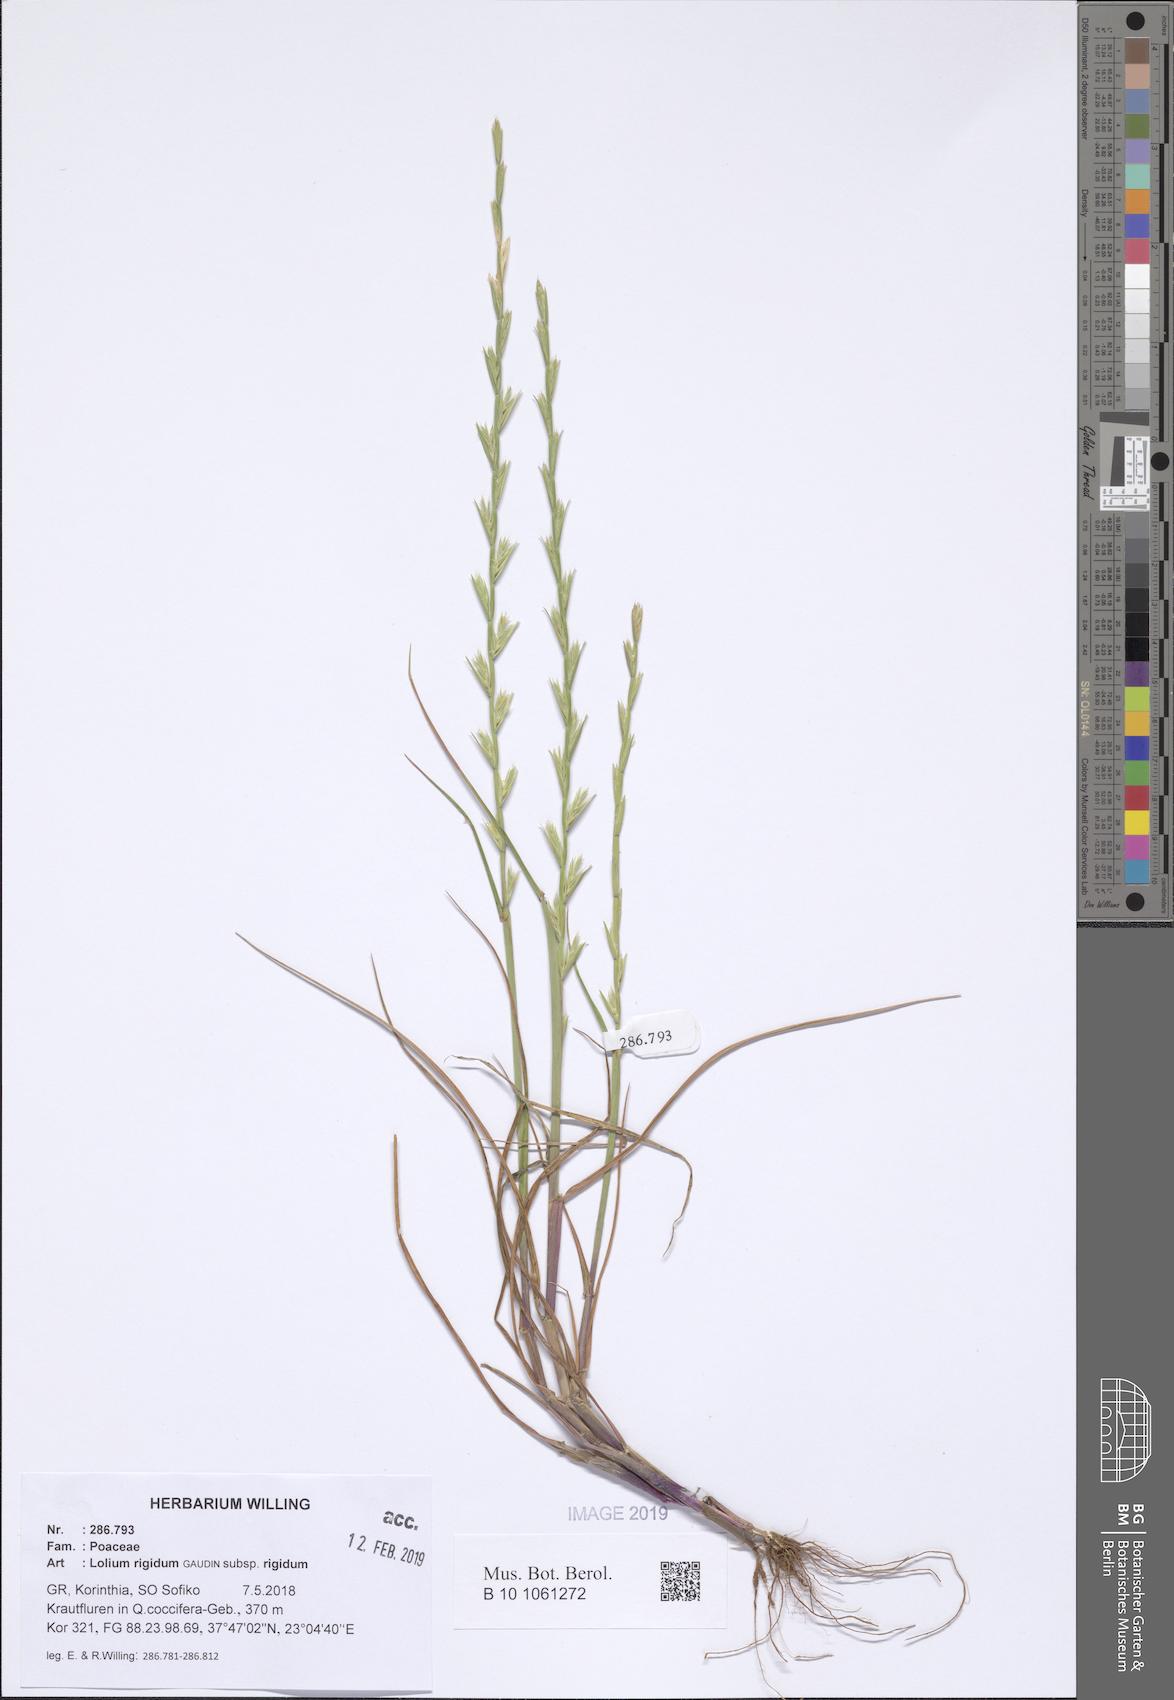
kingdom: Plantae
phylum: Tracheophyta
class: Liliopsida
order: Poales
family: Poaceae
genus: Lolium
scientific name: Lolium rigidum
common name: Wimmera ryegrass
